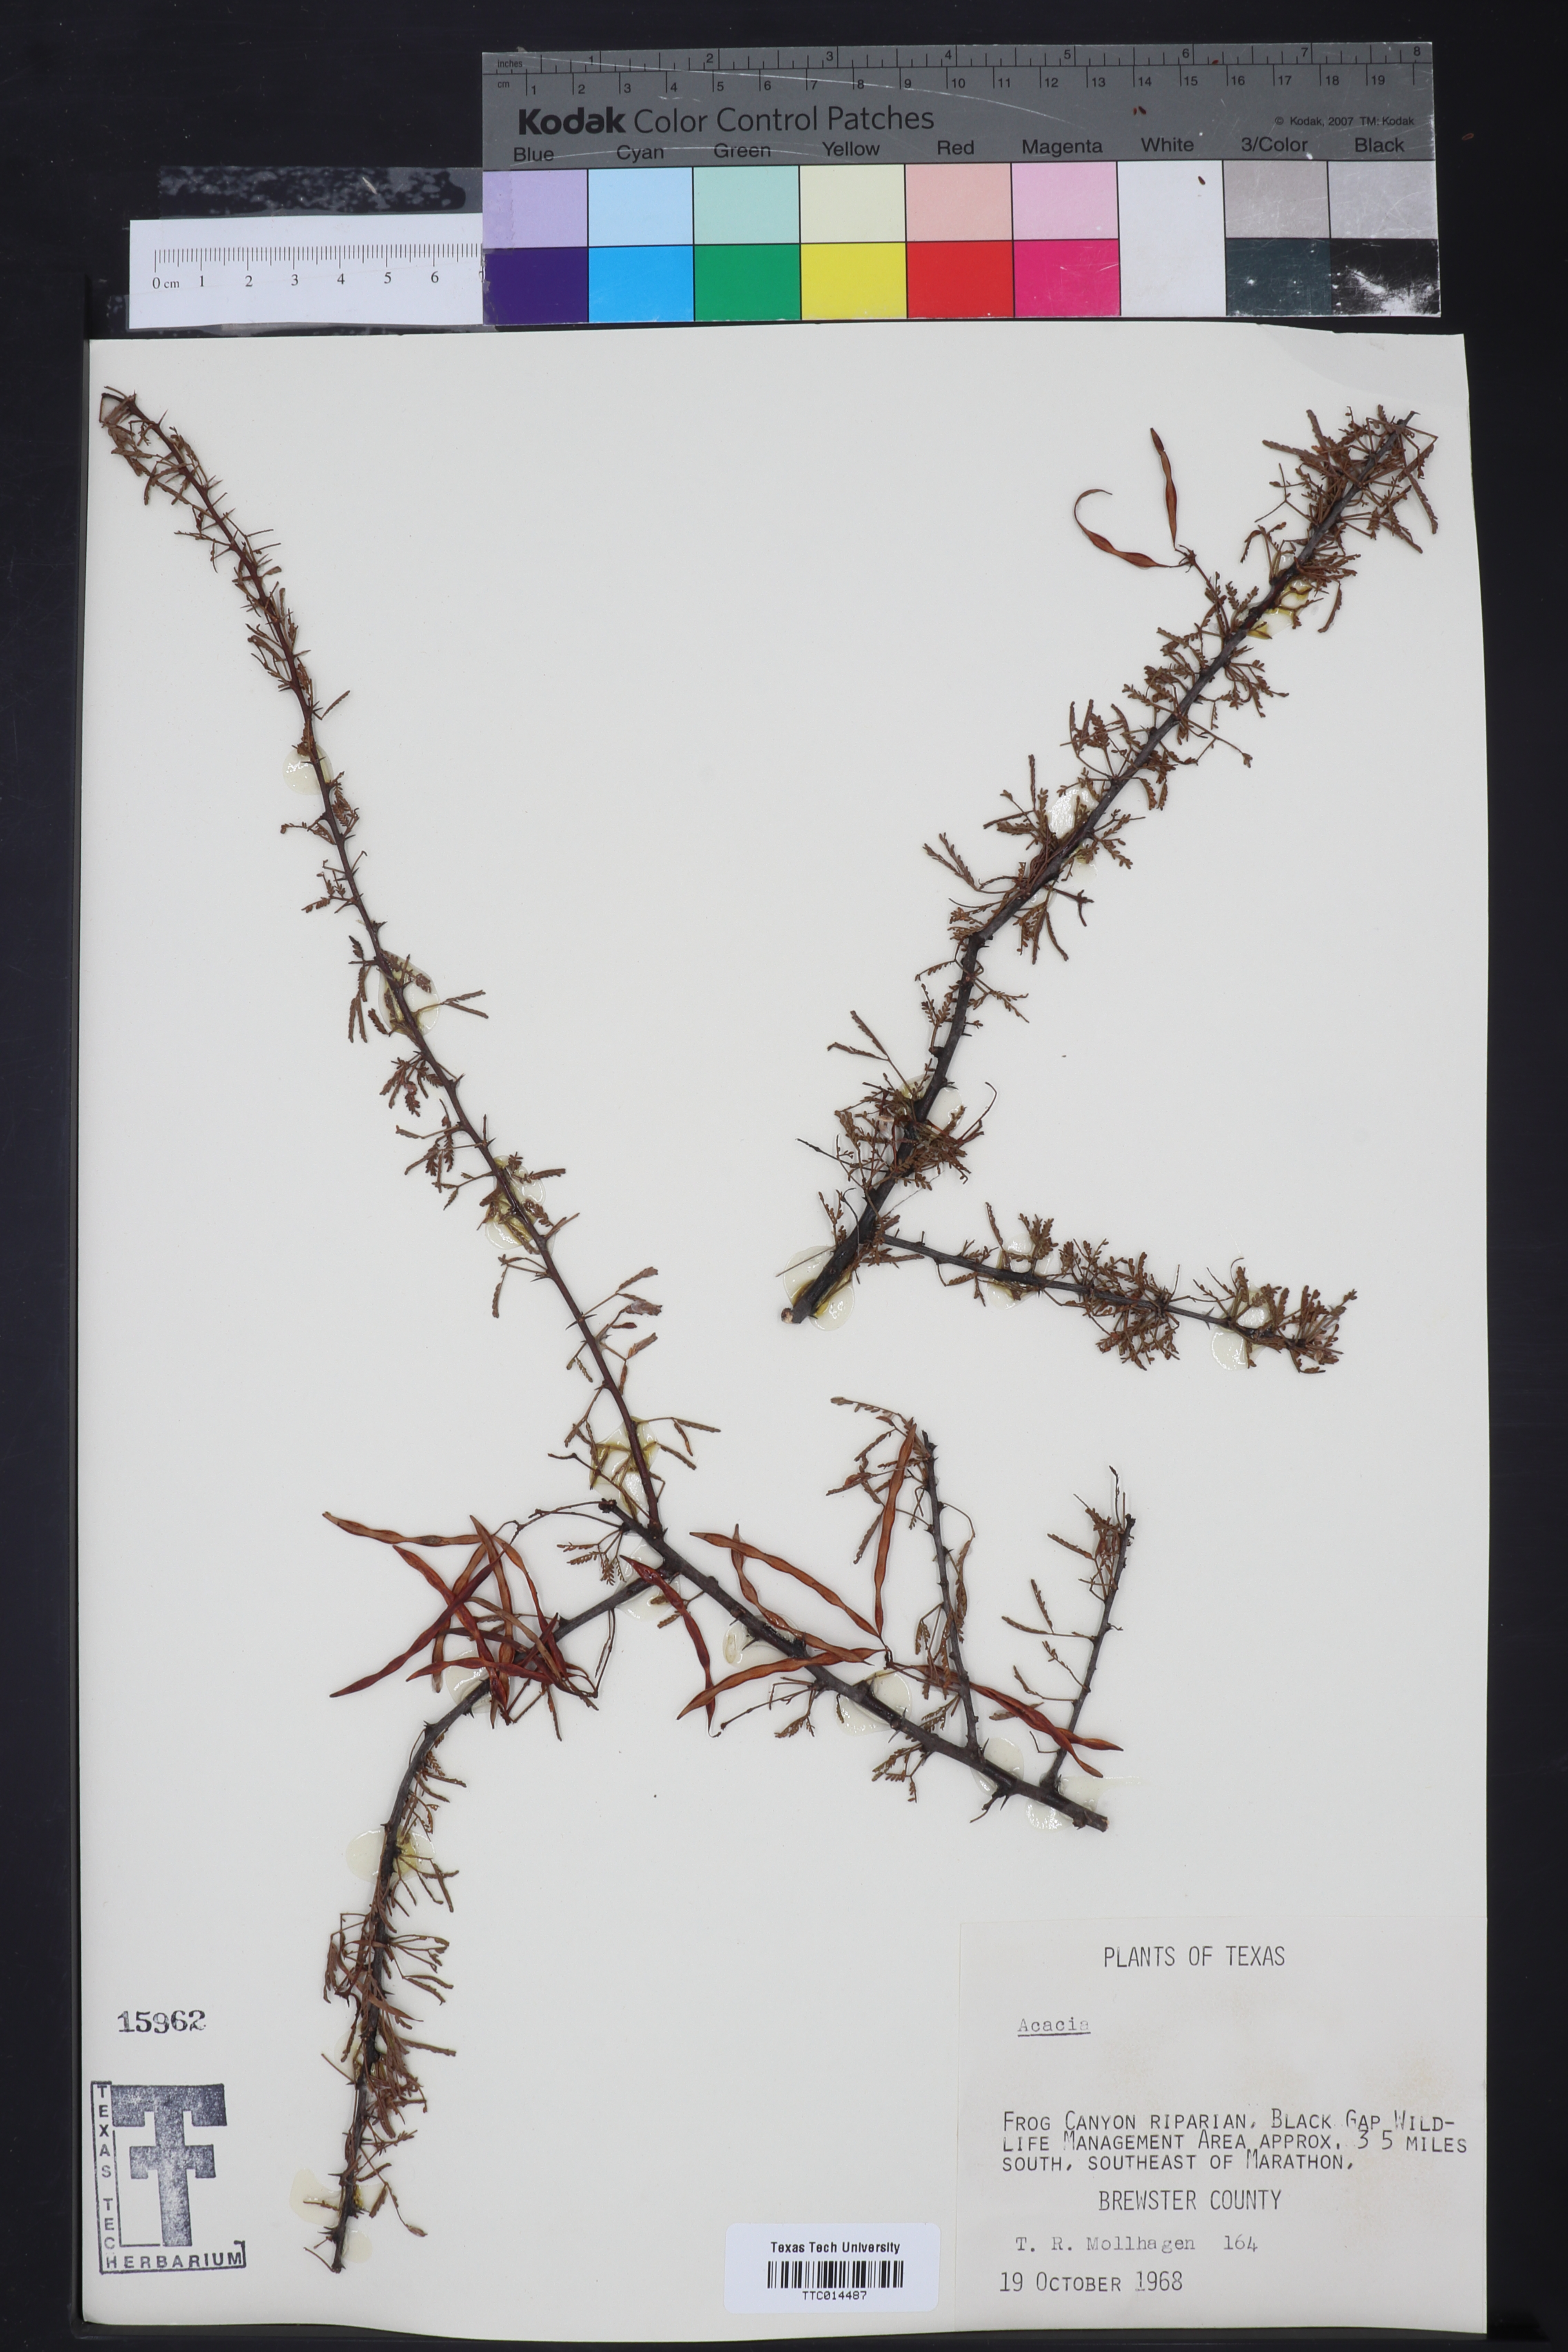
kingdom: Plantae
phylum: Tracheophyta
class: Magnoliopsida
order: Fabales
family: Fabaceae
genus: Acacia
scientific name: Acacia
